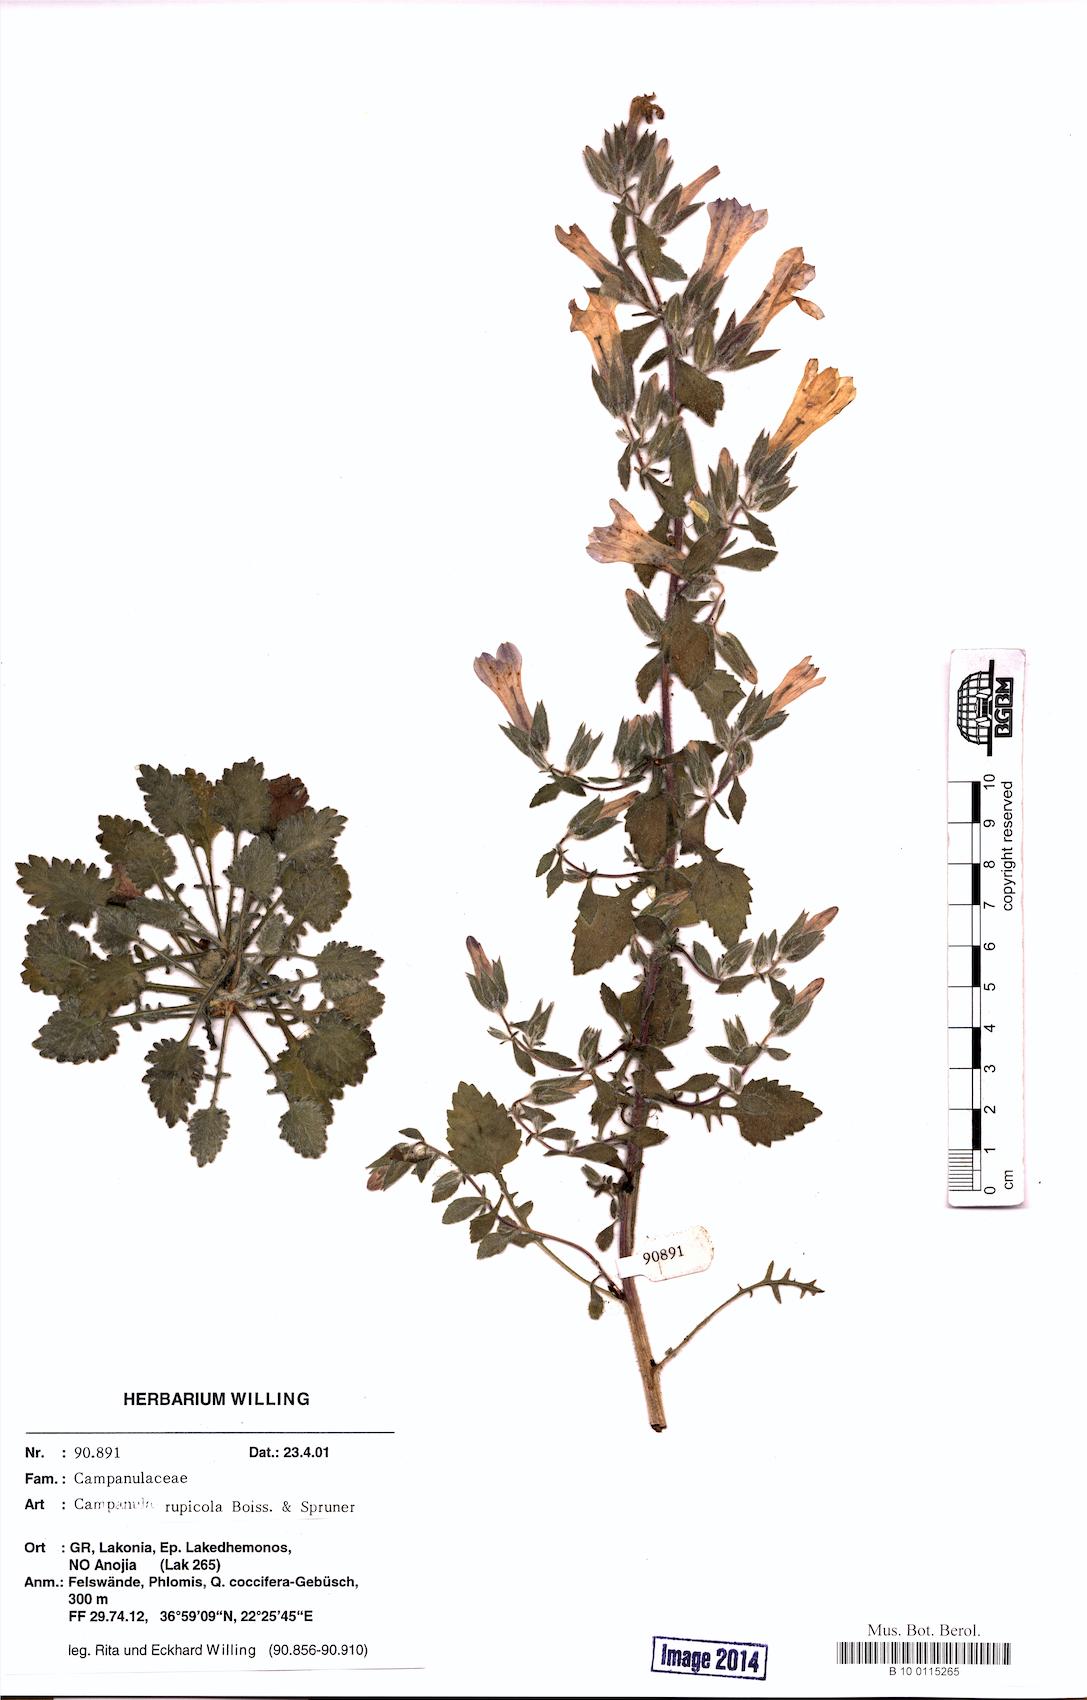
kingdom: Plantae
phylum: Tracheophyta
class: Magnoliopsida
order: Asterales
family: Campanulaceae
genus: Campanula
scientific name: Campanula rupicola
